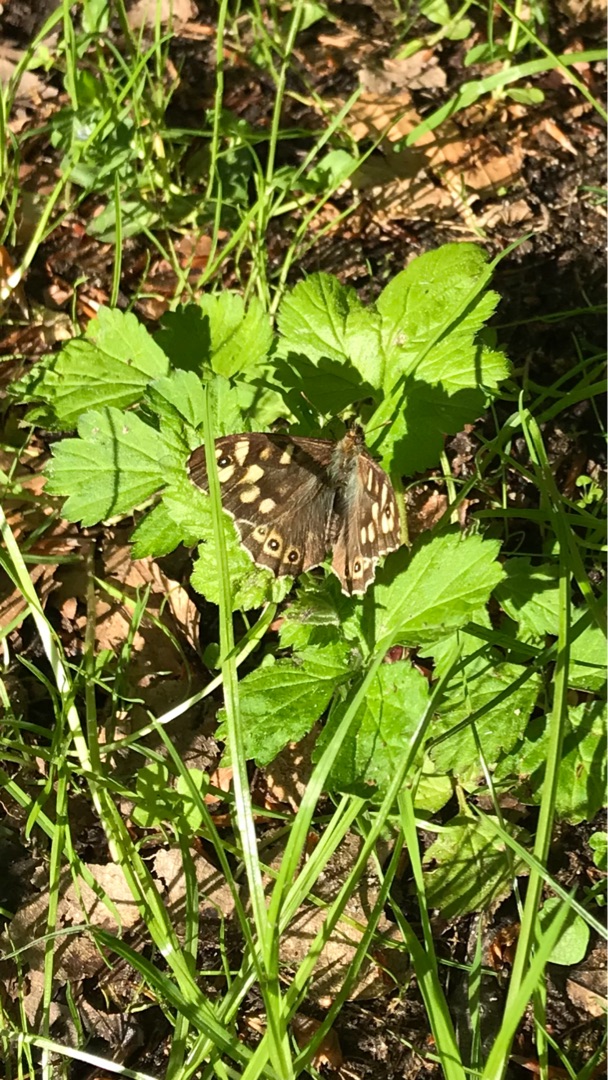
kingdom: Animalia
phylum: Arthropoda
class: Insecta
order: Lepidoptera
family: Nymphalidae
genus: Pararge
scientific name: Pararge aegeria
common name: Skovrandøje
